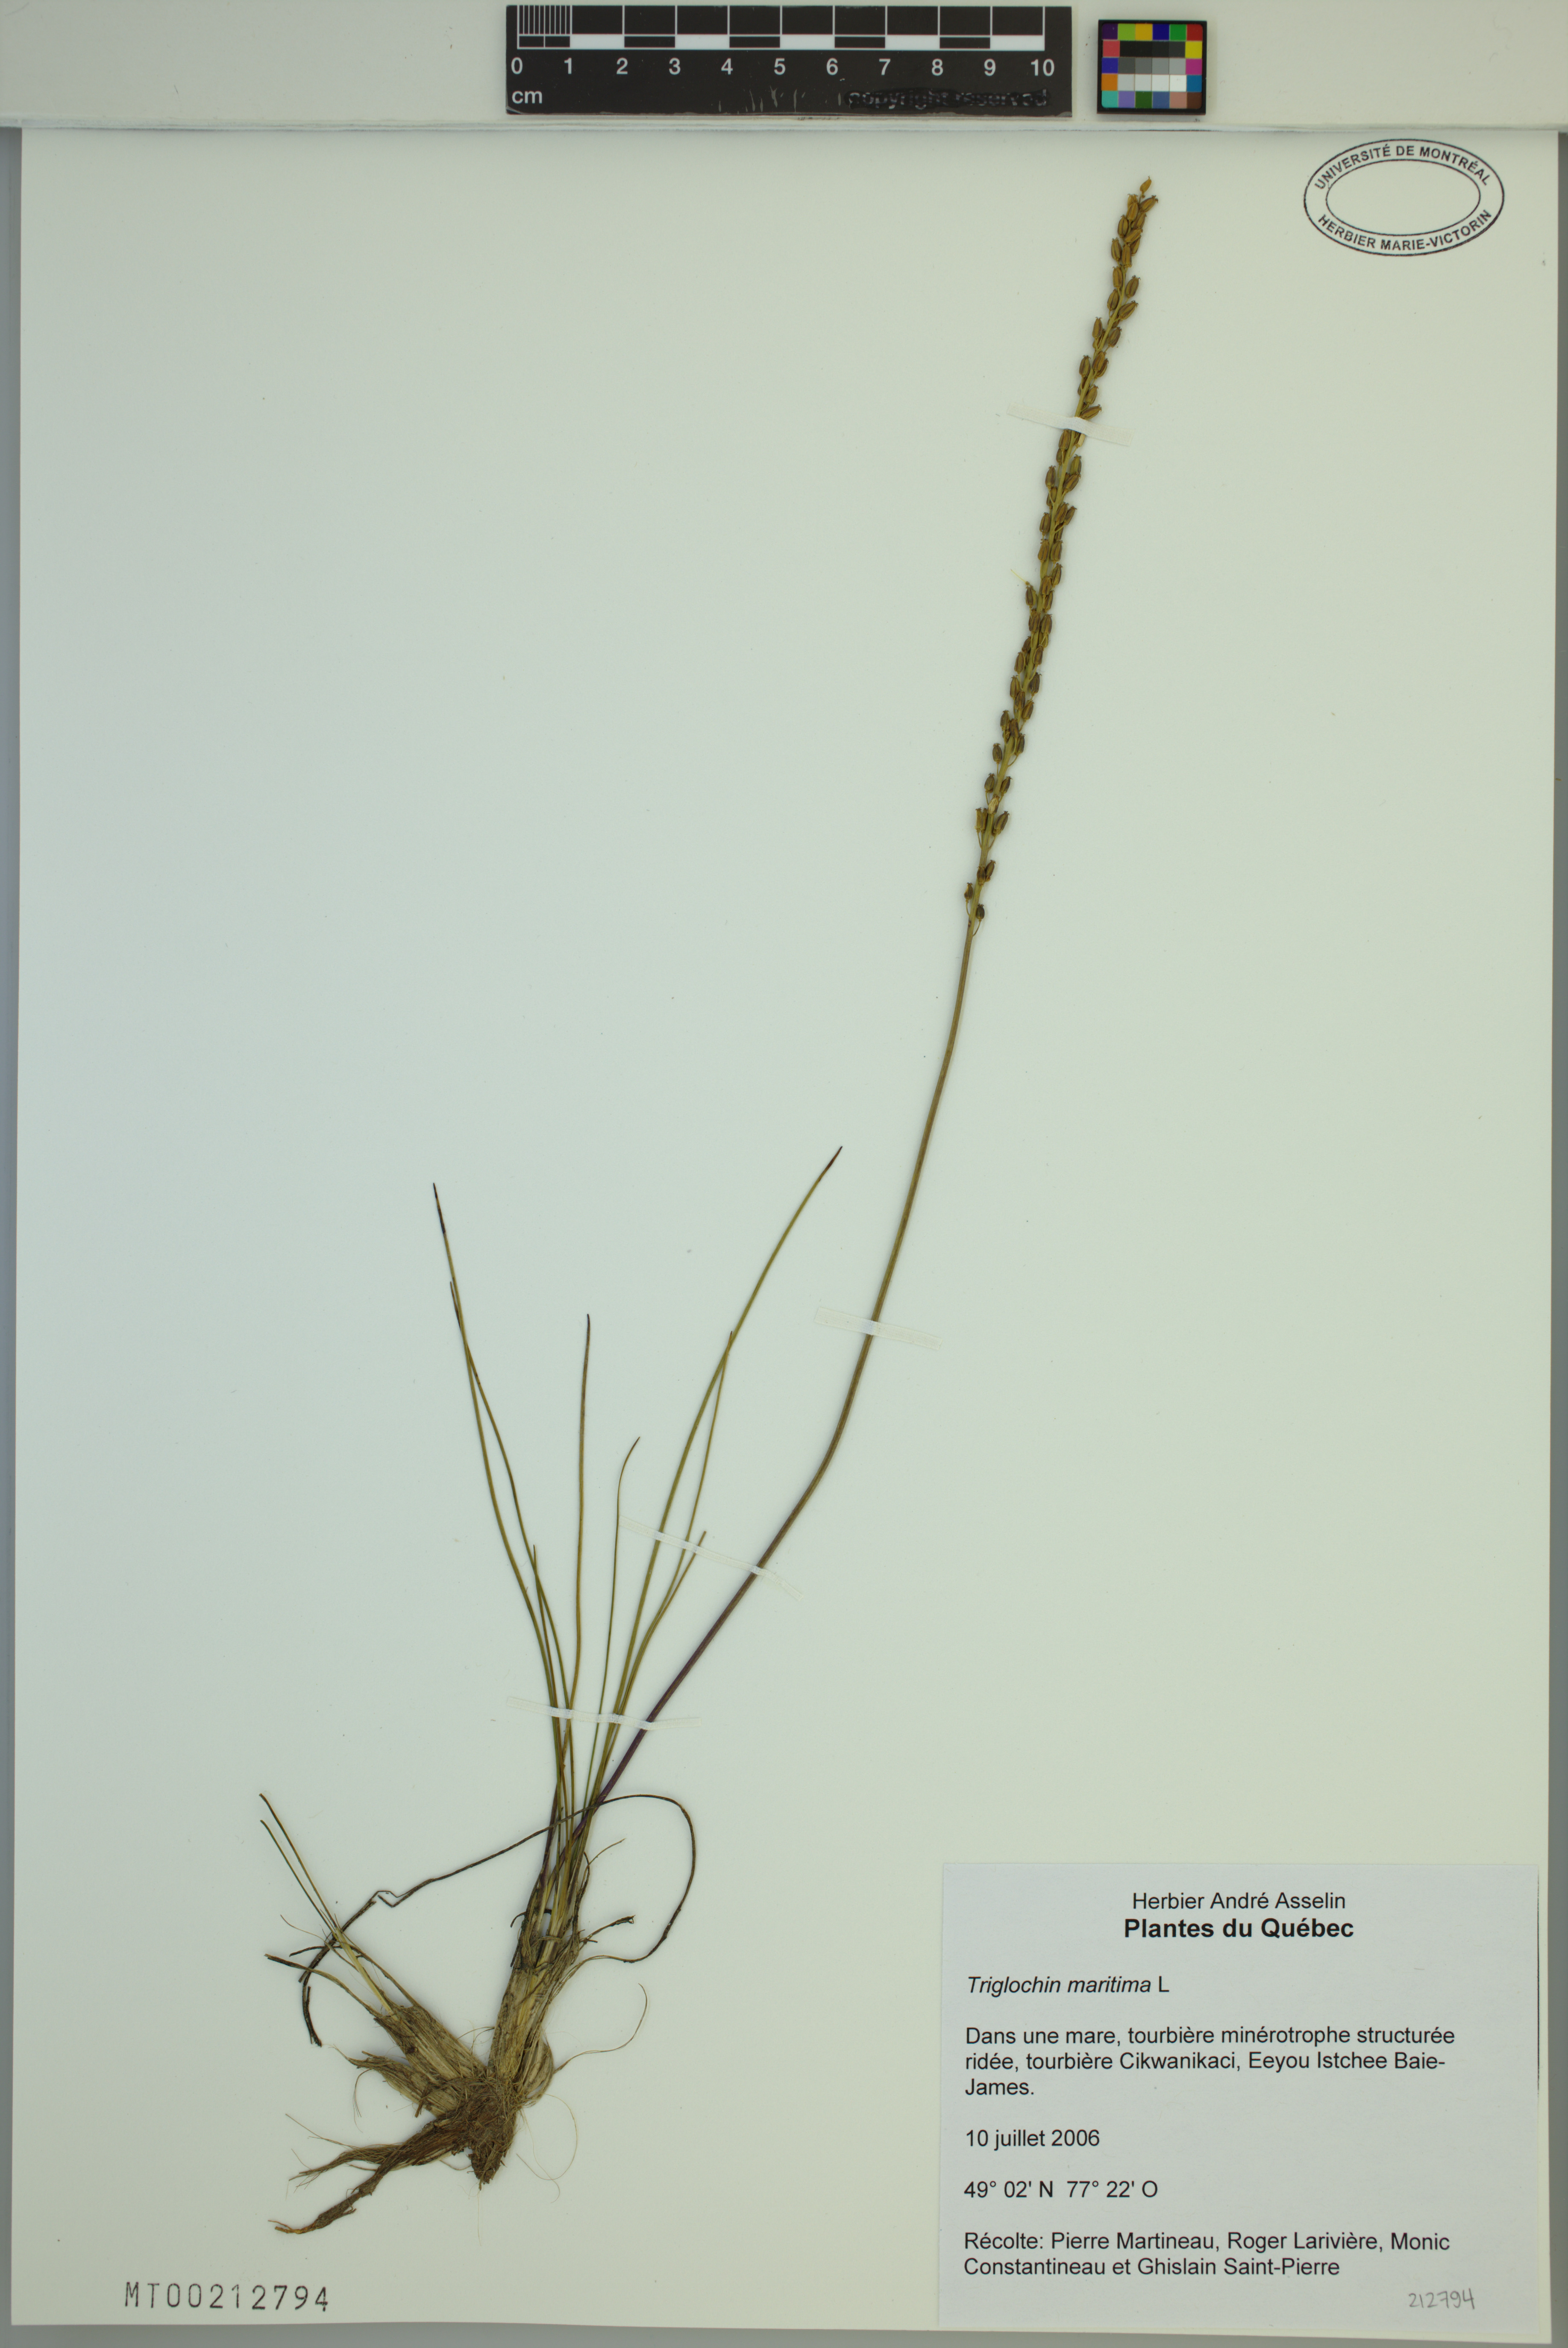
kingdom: Plantae
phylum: Tracheophyta
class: Liliopsida
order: Alismatales
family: Juncaginaceae
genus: Triglochin
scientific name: Triglochin maritima
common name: Sea arrowgrass
